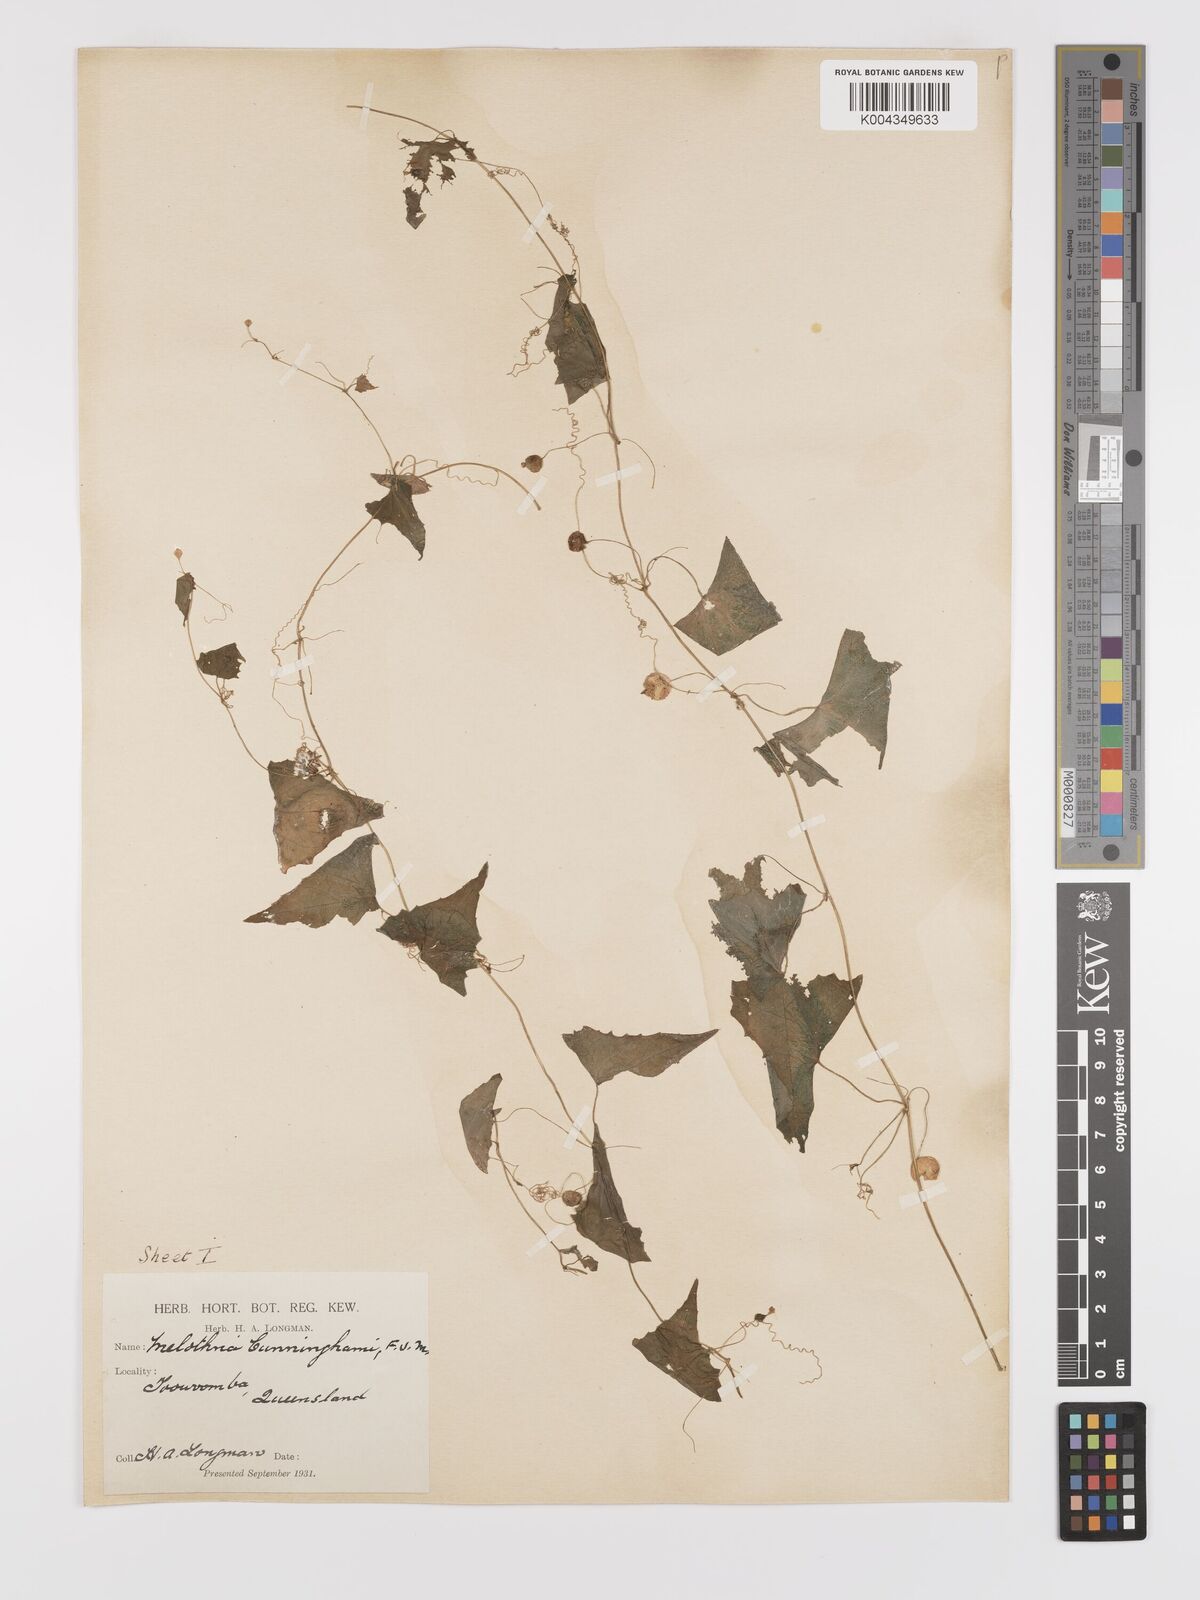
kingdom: Plantae
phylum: Tracheophyta
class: Magnoliopsida
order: Cucurbitales
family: Cucurbitaceae
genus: Zehneria
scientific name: Zehneria cunninghamii
